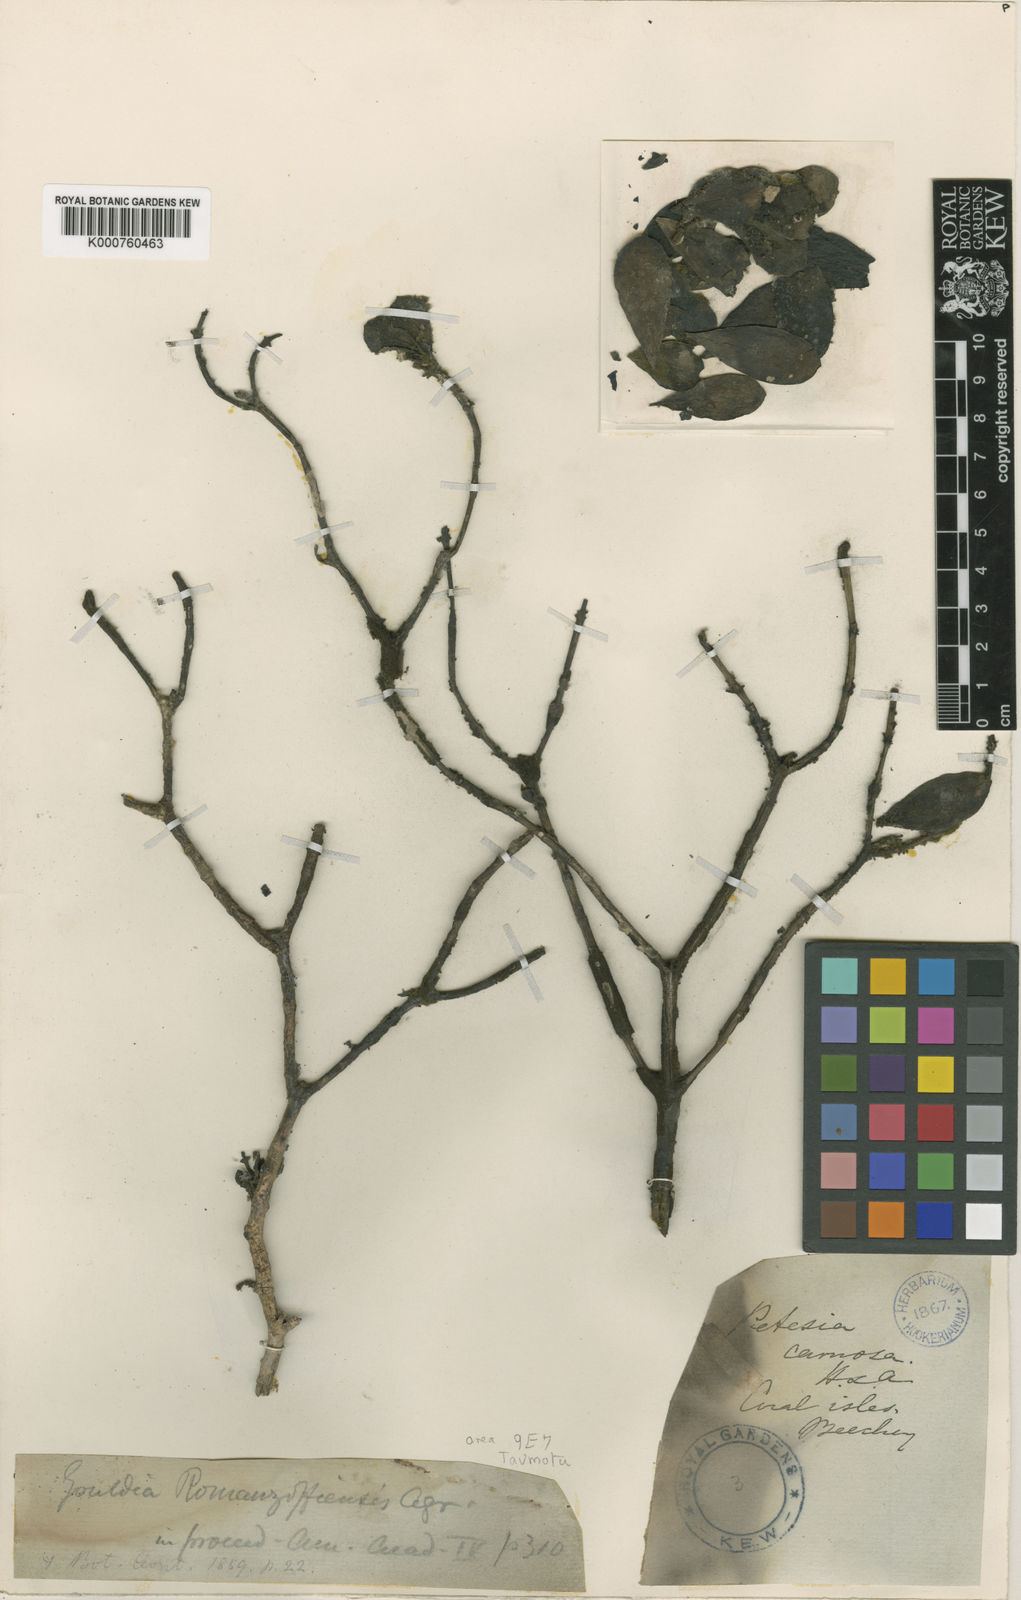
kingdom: Plantae
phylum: Tracheophyta
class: Magnoliopsida
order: Gentianales
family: Rubiaceae
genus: Kadua
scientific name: Kadua romanzoffiensis
